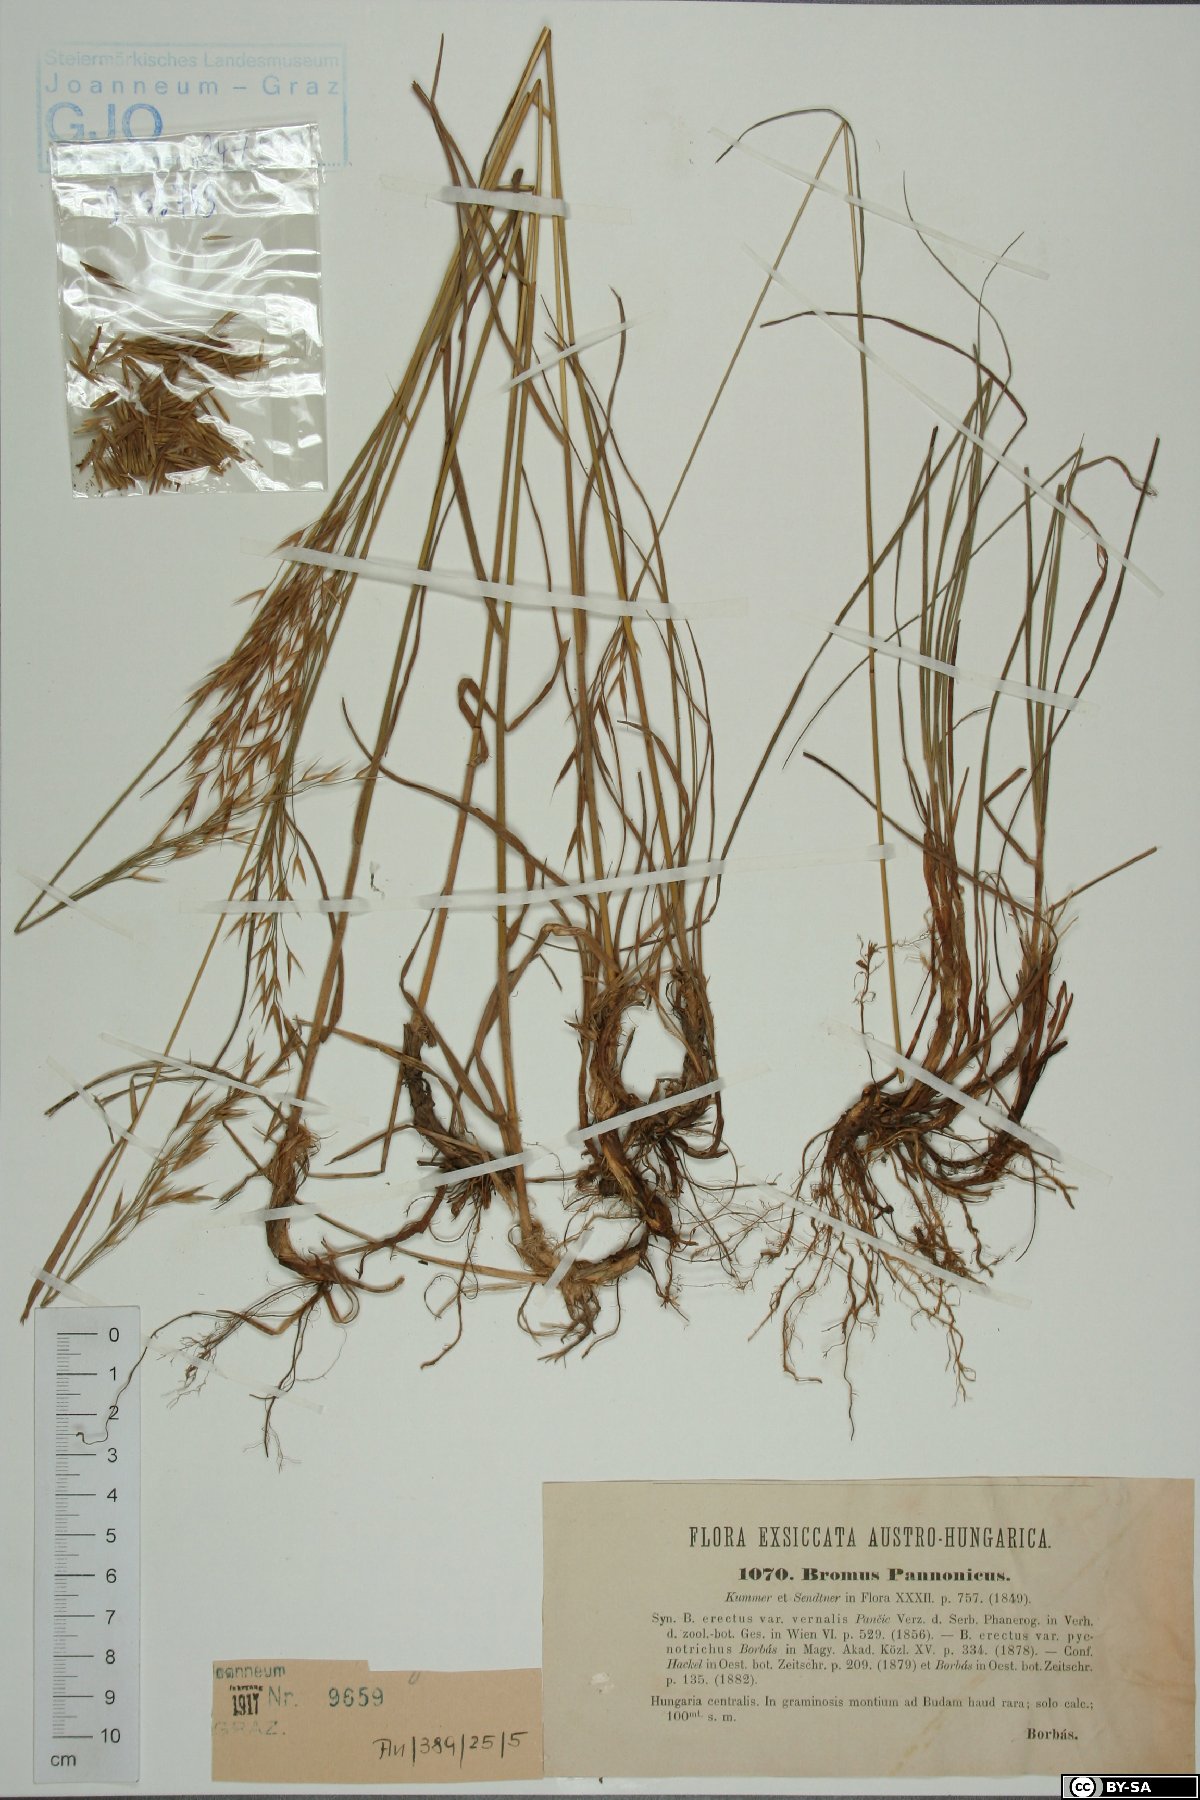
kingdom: Plantae
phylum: Tracheophyta
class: Liliopsida
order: Poales
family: Poaceae
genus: Bromus
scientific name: Bromus pannonicus
